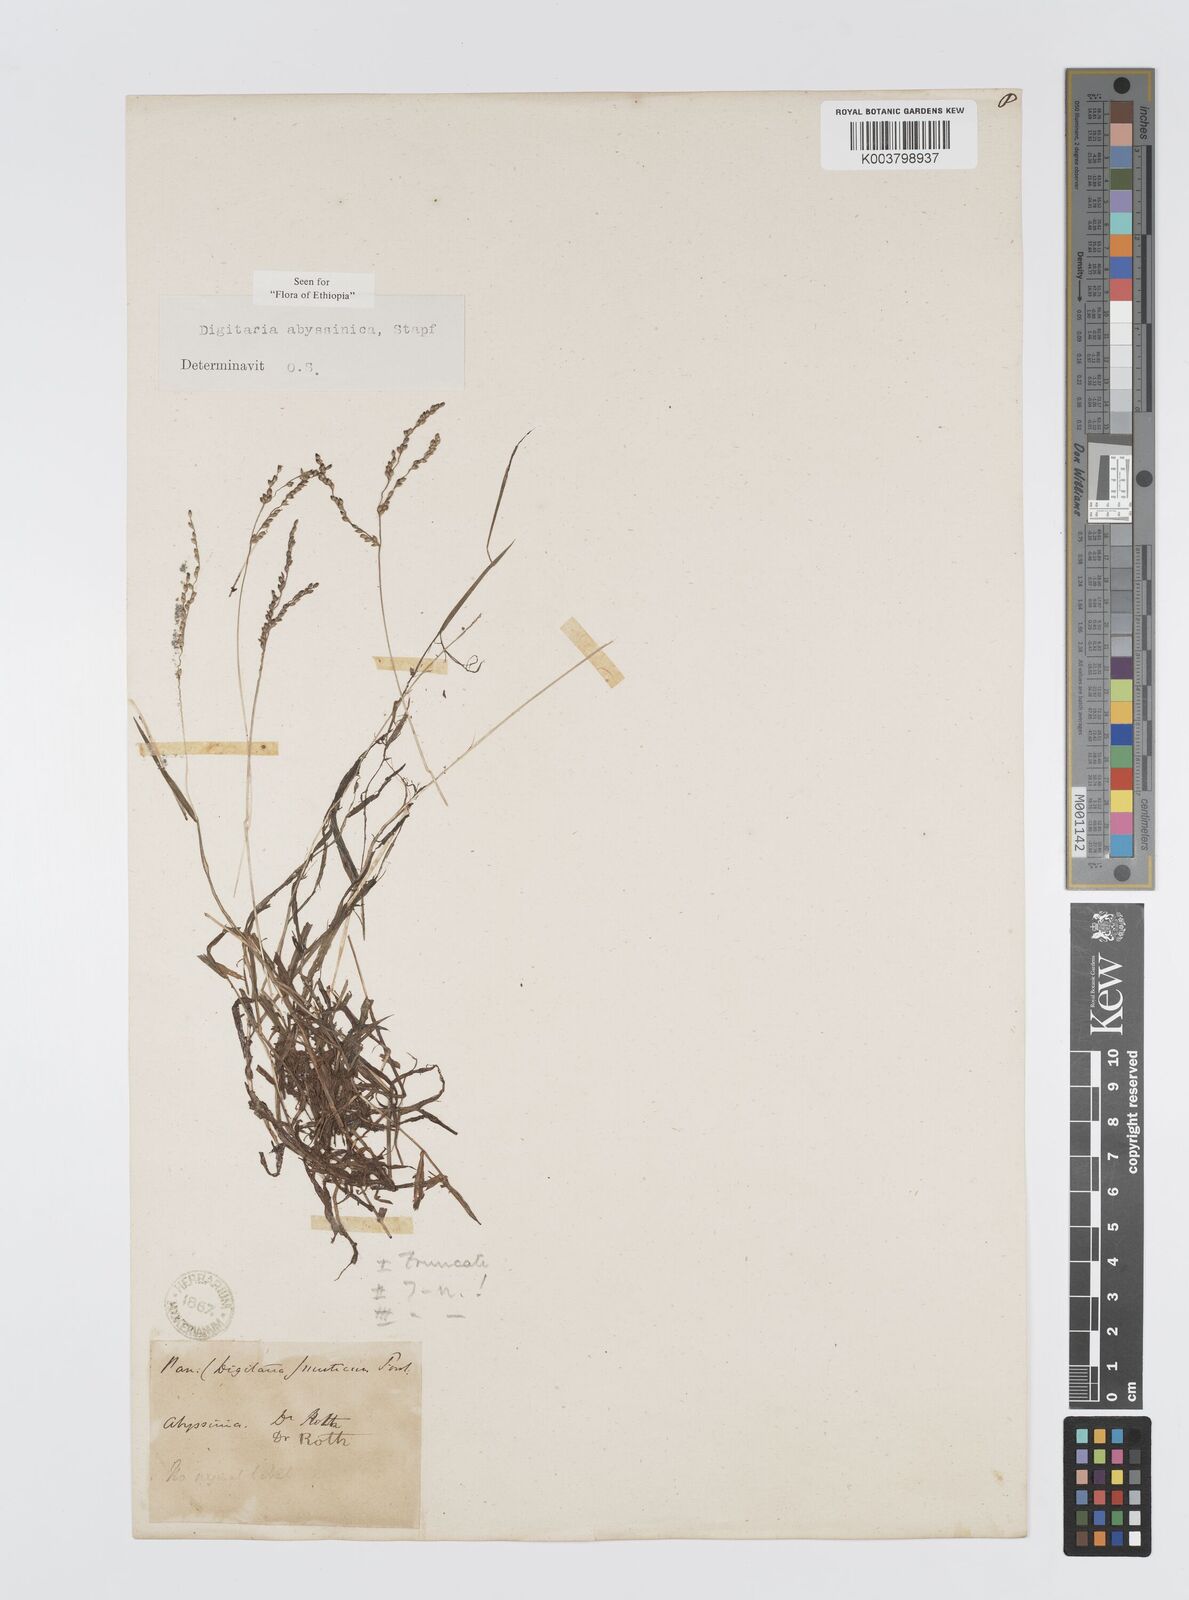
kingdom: Plantae
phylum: Tracheophyta
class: Liliopsida
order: Poales
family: Poaceae
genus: Digitaria
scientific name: Digitaria abyssinica
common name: African couchgrass
